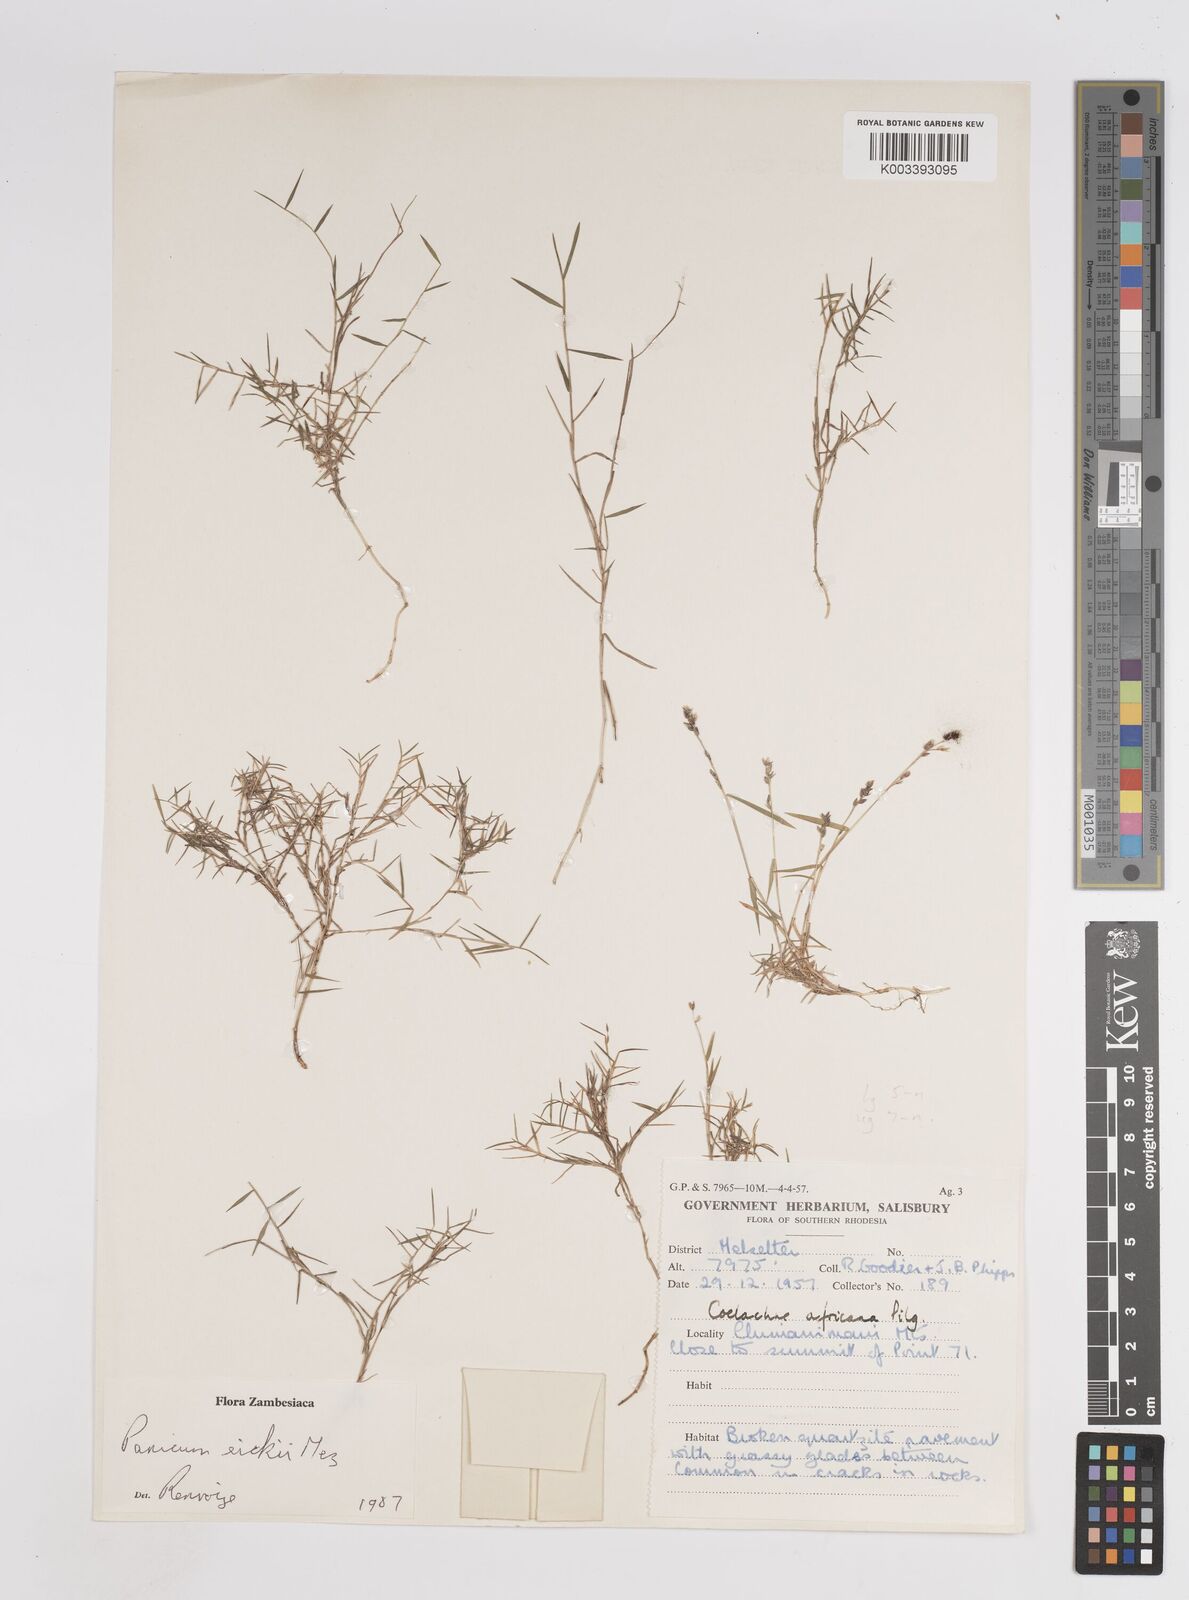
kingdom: Plantae
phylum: Tracheophyta
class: Liliopsida
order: Poales
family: Poaceae
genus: Panicum
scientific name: Panicum eickii
